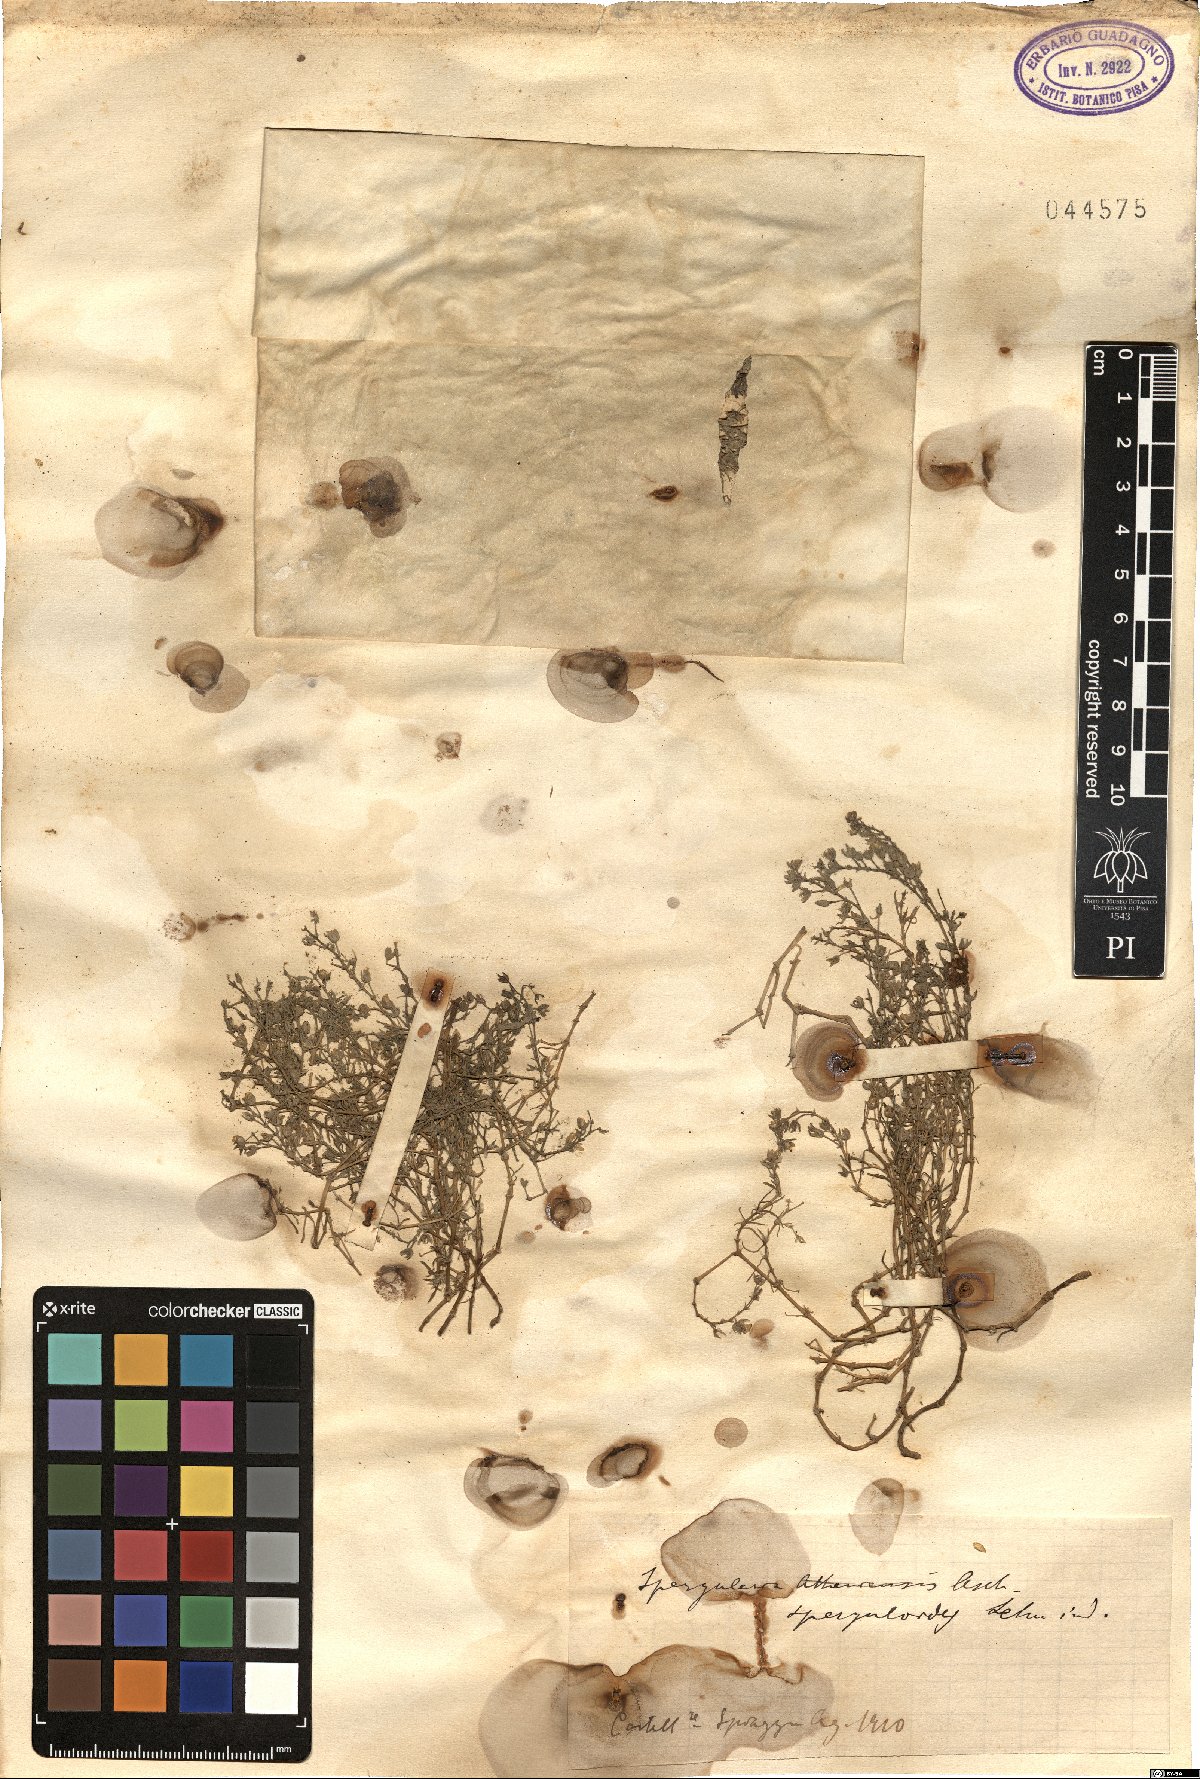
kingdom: Plantae
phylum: Tracheophyta
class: Magnoliopsida
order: Caryophyllales
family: Caryophyllaceae
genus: Spergularia
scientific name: Spergularia marina
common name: Lesser sea-spurrey
